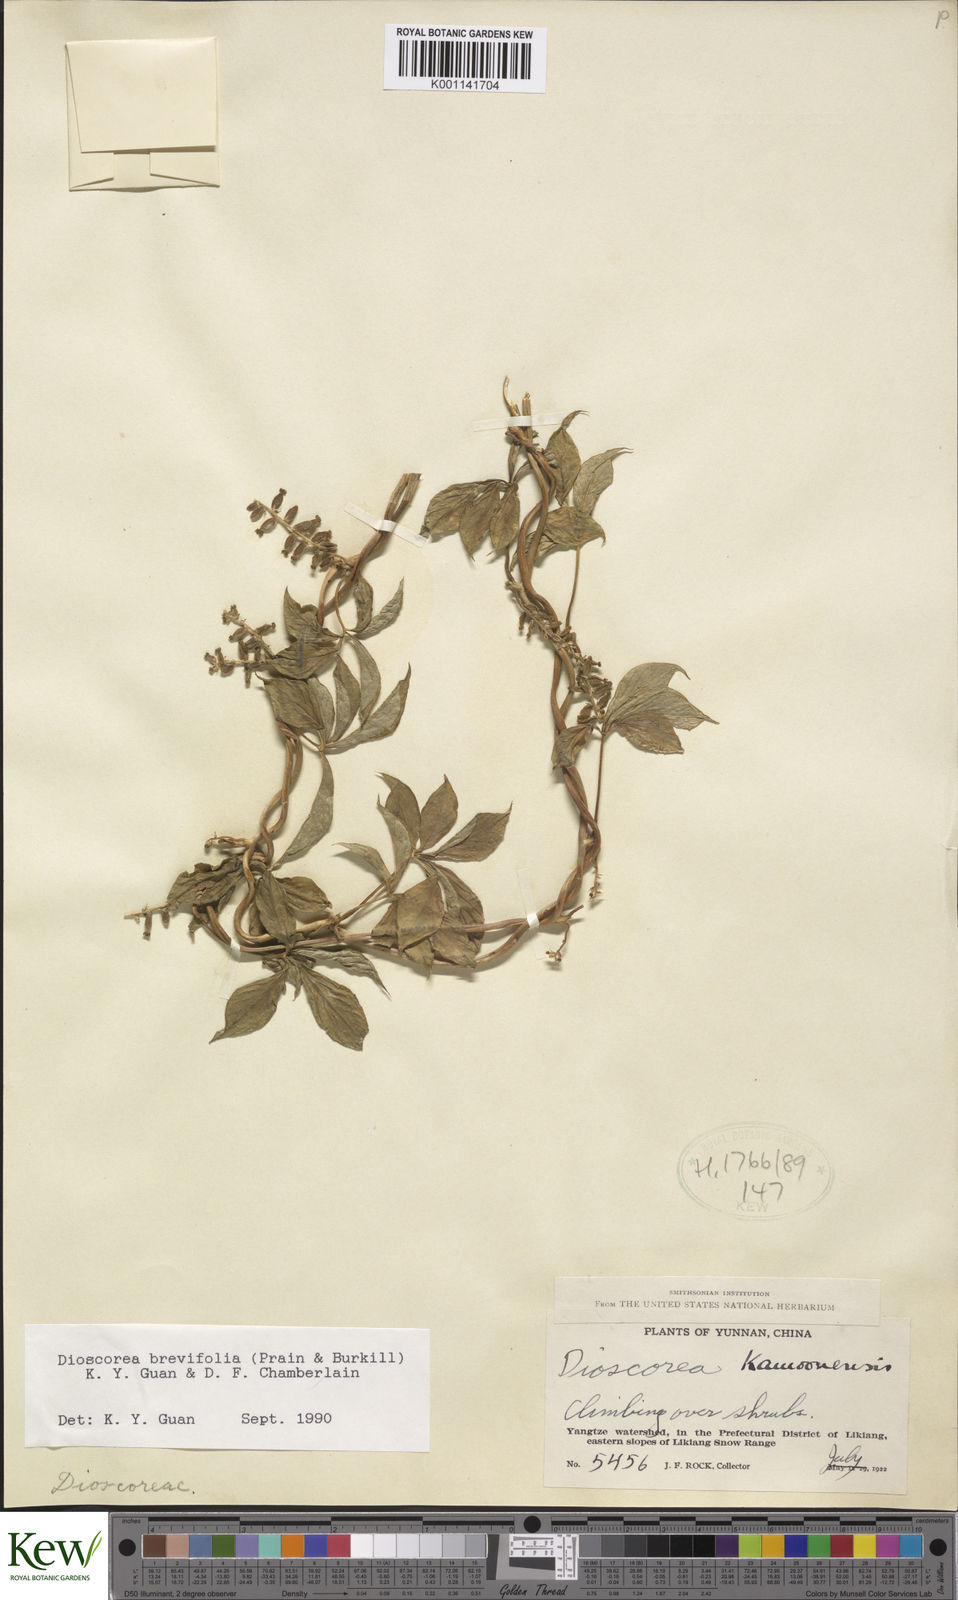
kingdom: Plantae
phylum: Tracheophyta
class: Liliopsida
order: Dioscoreales
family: Dioscoreaceae
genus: Dioscorea
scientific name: Dioscorea kamoonensis
